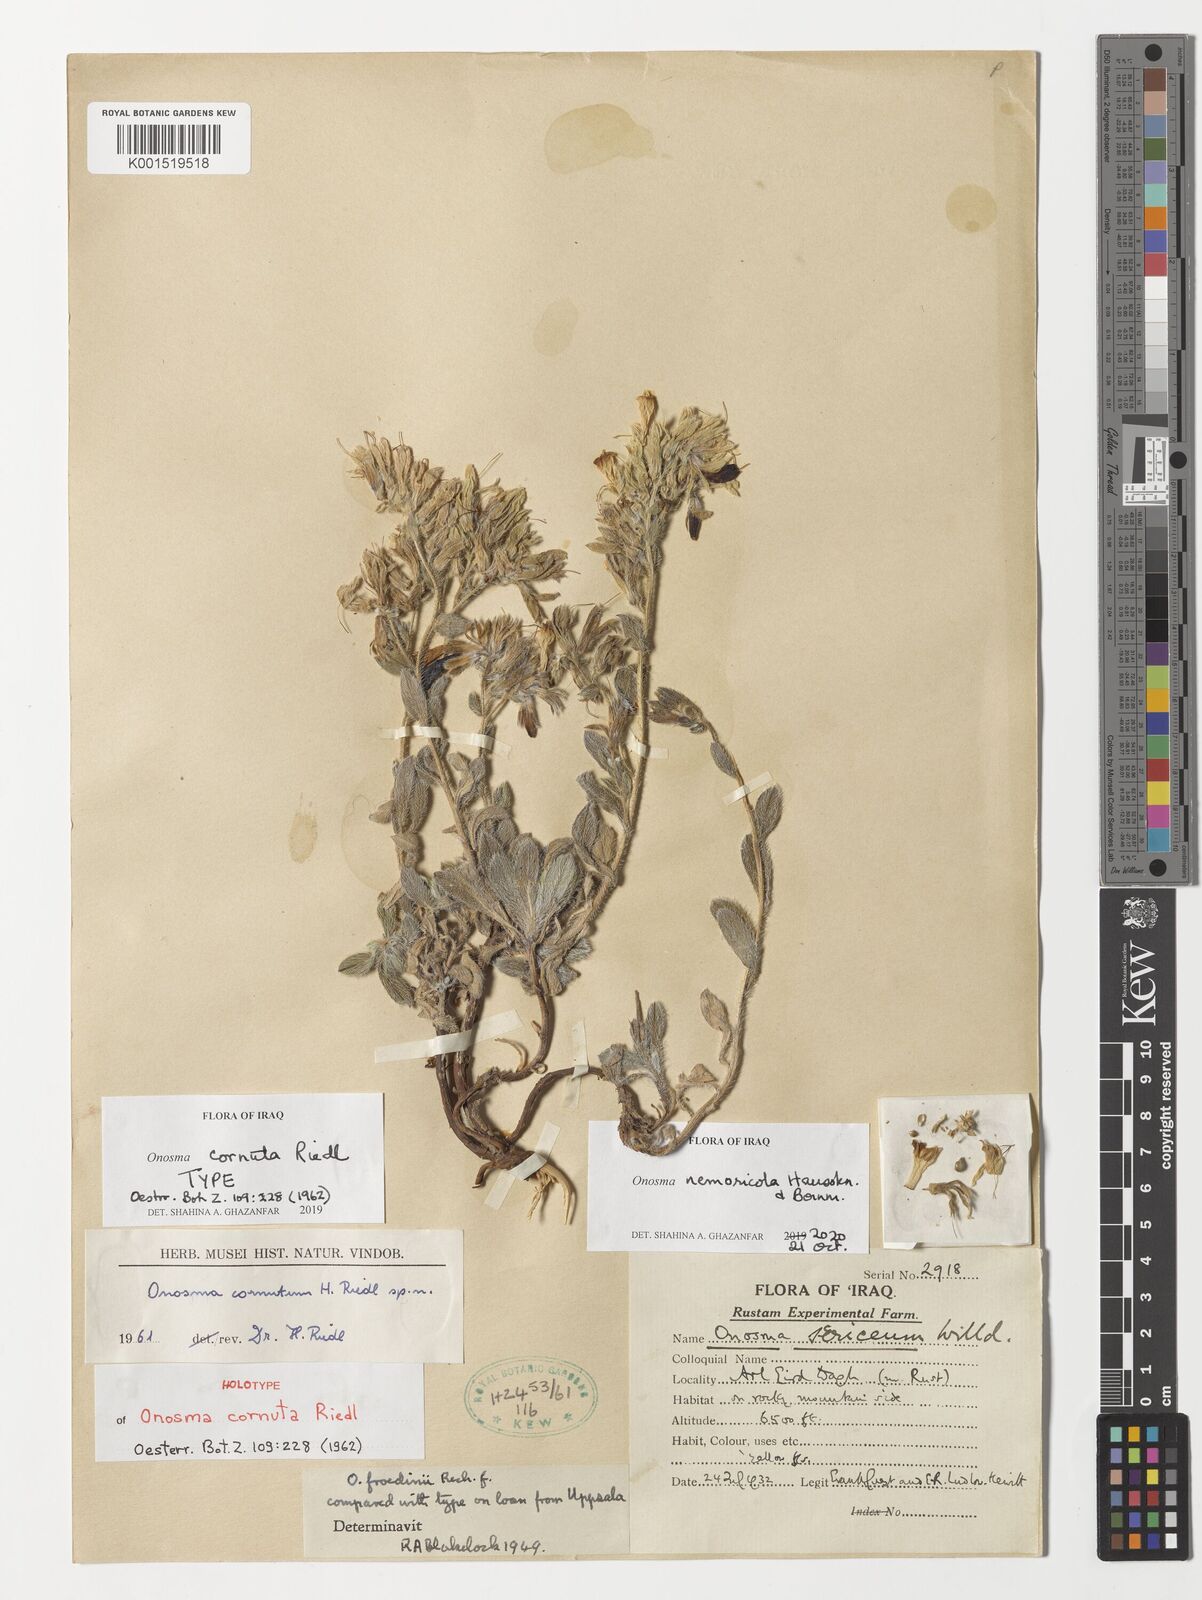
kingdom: Plantae
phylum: Tracheophyta
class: Magnoliopsida
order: Boraginales
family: Boraginaceae
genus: Onosma
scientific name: Onosma nemoricola
